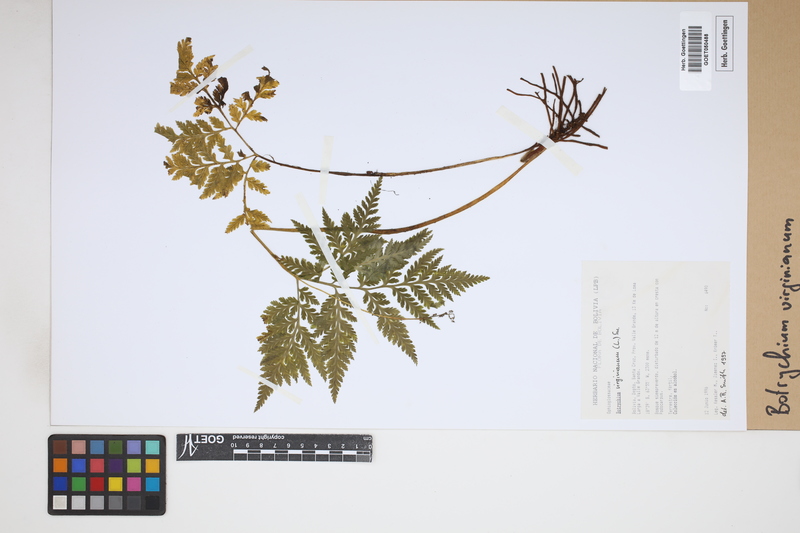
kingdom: Plantae
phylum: Tracheophyta
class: Polypodiopsida
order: Ophioglossales
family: Ophioglossaceae
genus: Botrychium
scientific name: Botrychium virginianum
